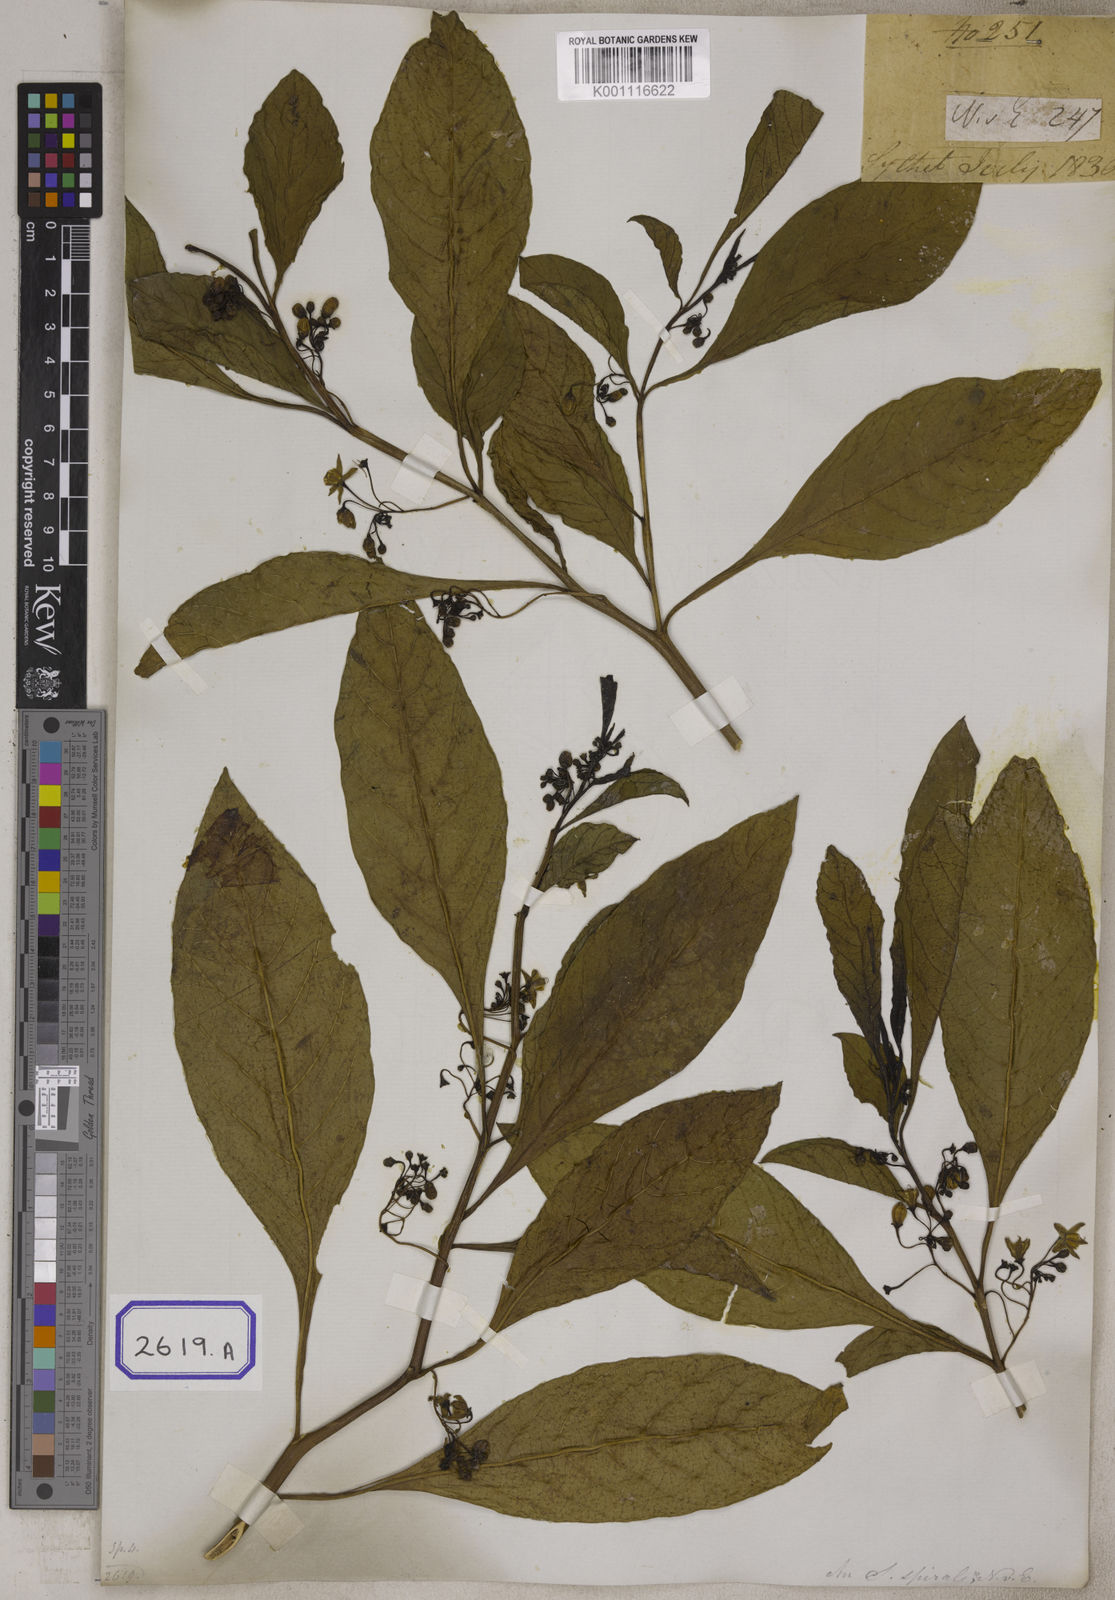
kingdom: Plantae
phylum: Tracheophyta
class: Magnoliopsida
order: Solanales
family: Solanaceae
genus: Solanum
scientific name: Solanum spirale
